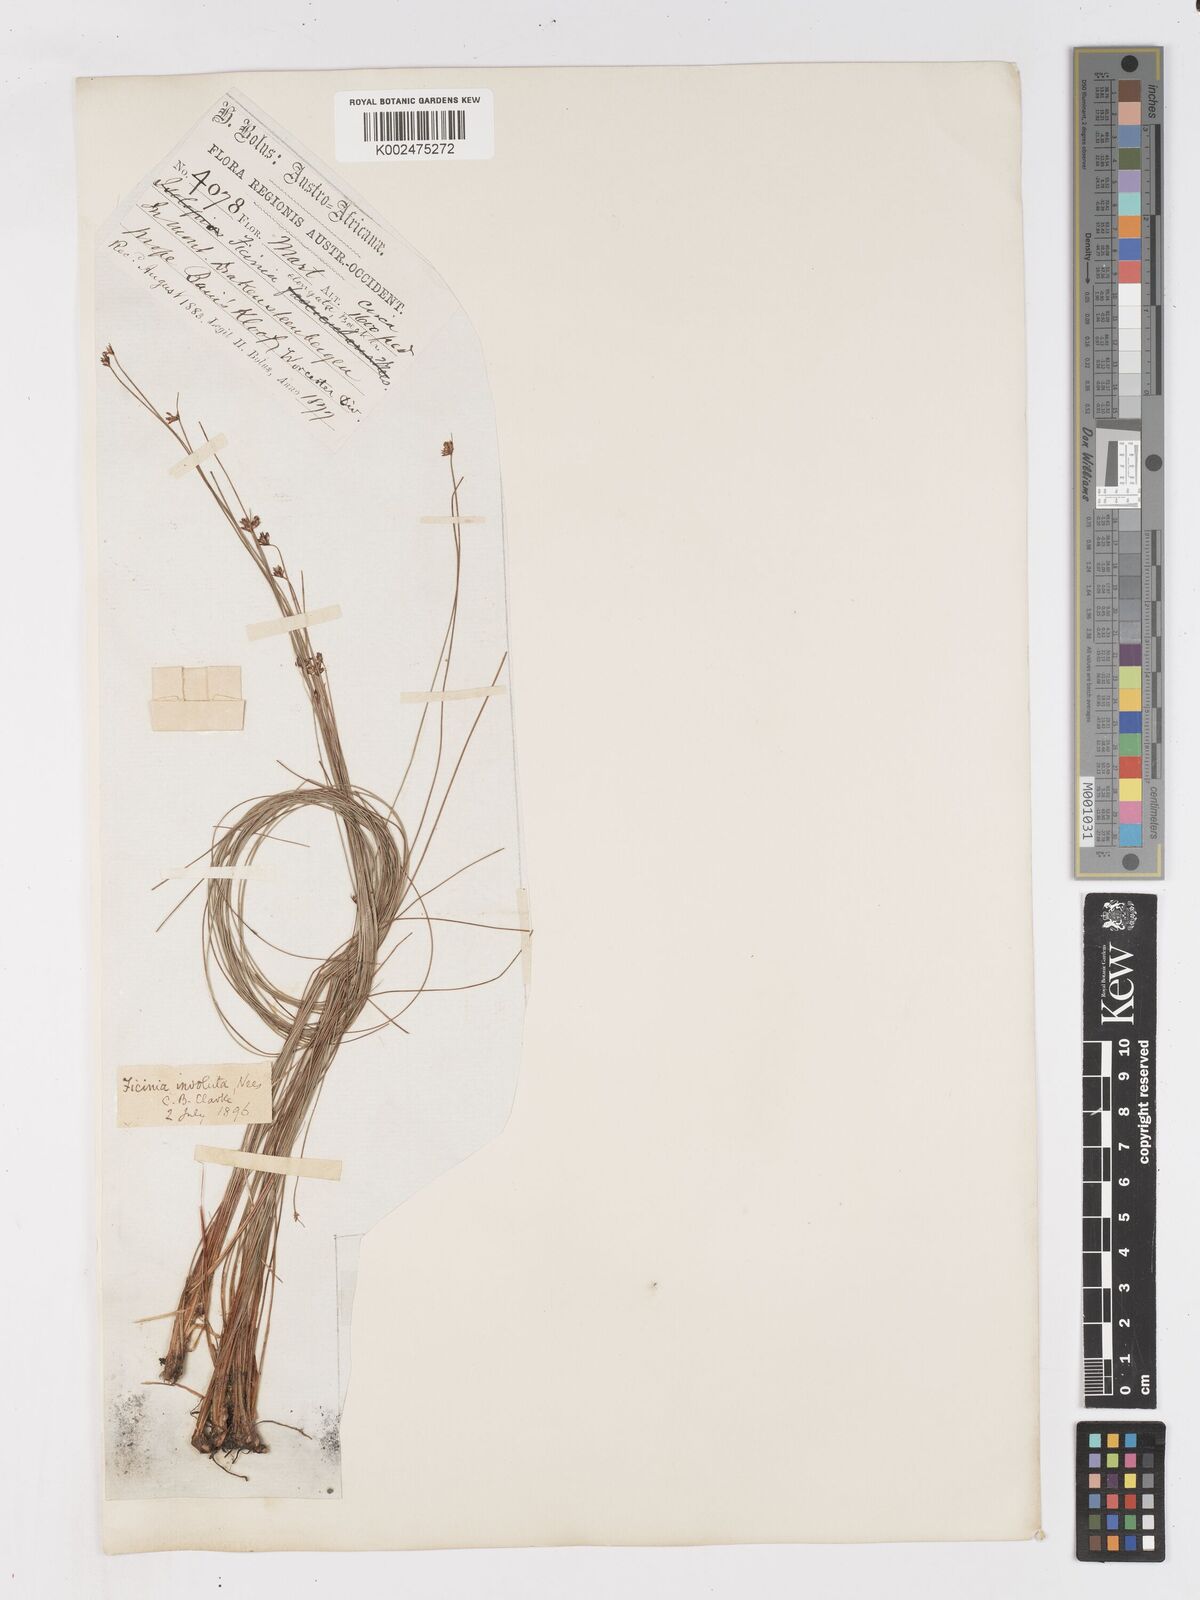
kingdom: Plantae
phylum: Tracheophyta
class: Liliopsida
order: Poales
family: Cyperaceae
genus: Ficinia
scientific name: Ficinia involuta
